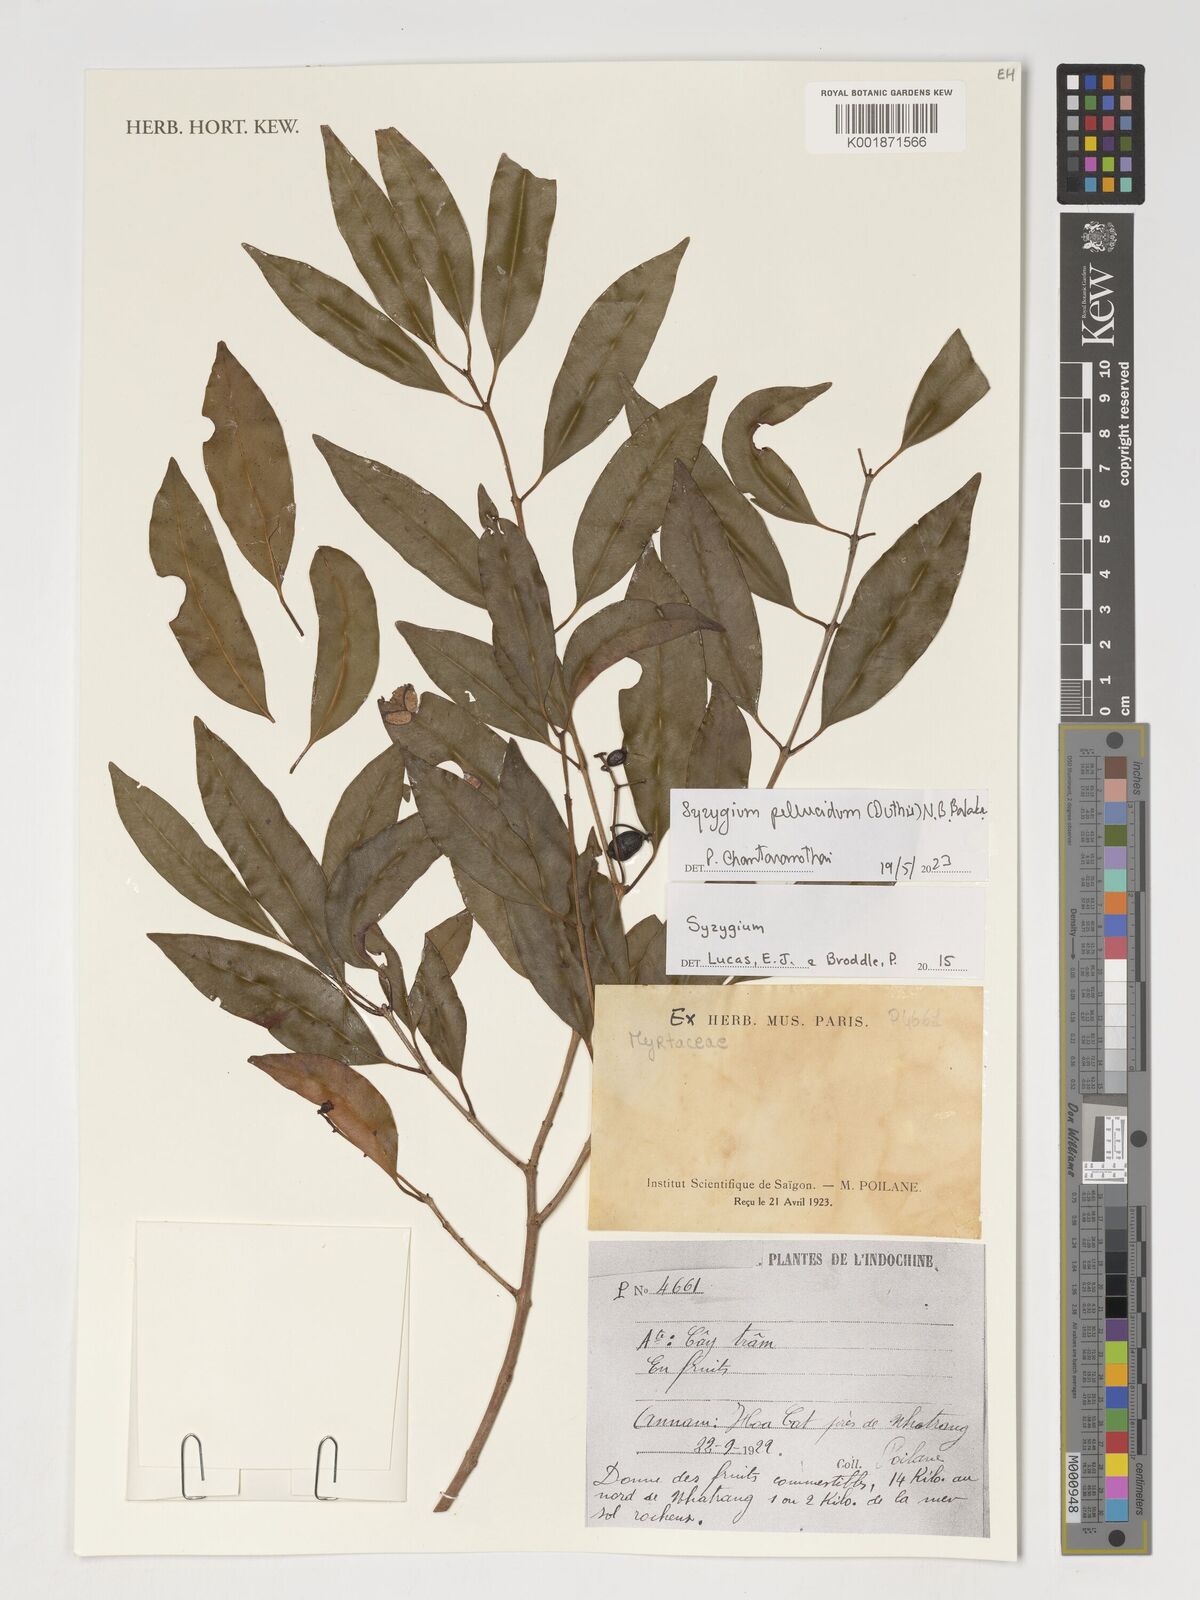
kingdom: Plantae
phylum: Tracheophyta
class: Magnoliopsida
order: Myrtales
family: Myrtaceae
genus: Syzygium
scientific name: Syzygium pellucidum
